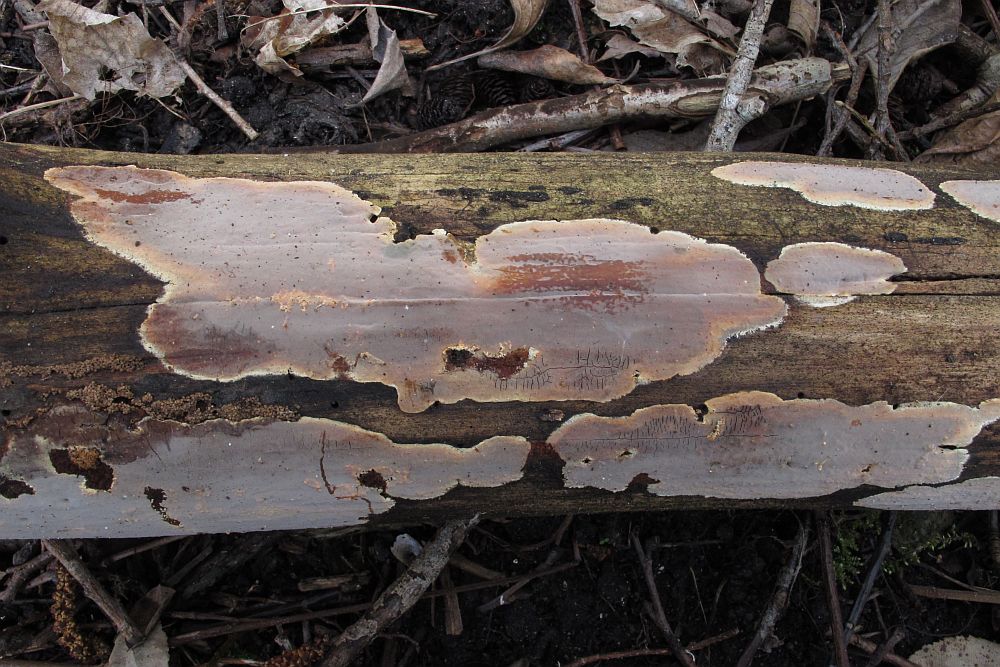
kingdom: Fungi
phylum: Basidiomycota
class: Agaricomycetes
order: Russulales
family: Peniophoraceae
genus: Scytinostroma
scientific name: Scytinostroma hemidichophyticum
